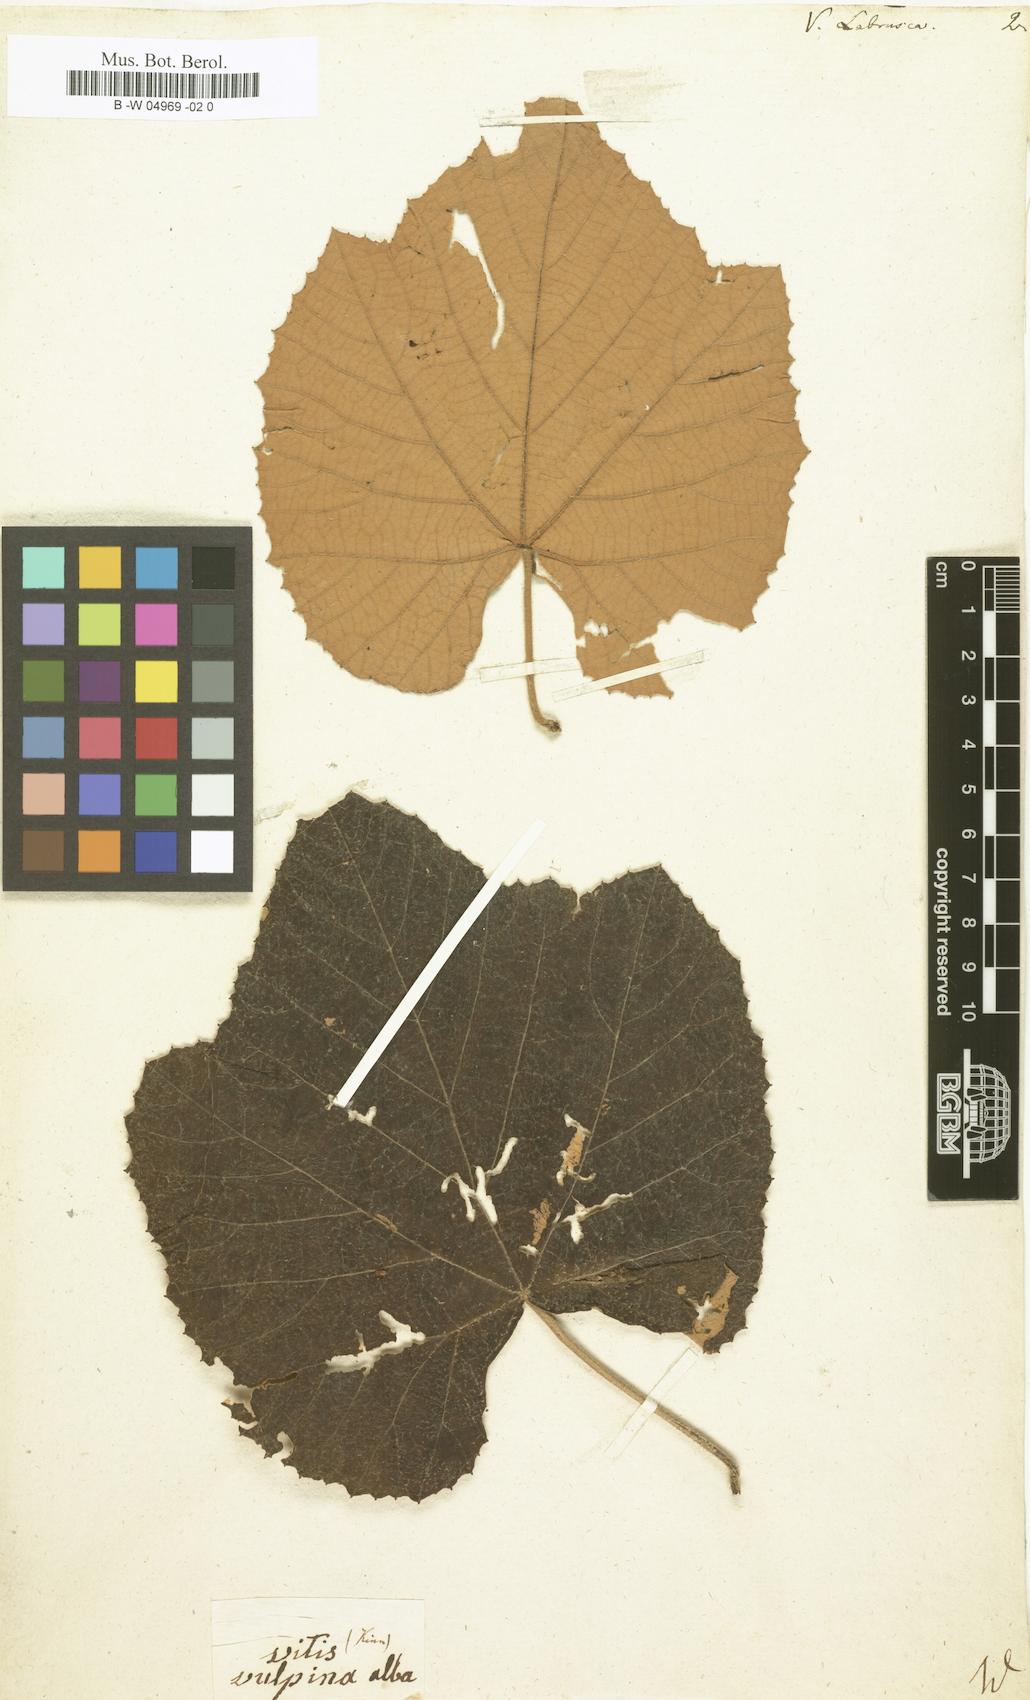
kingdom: Plantae
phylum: Tracheophyta
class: Magnoliopsida
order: Vitales
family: Vitaceae
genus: Vitis
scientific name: Vitis labrusca
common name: Concord grape
